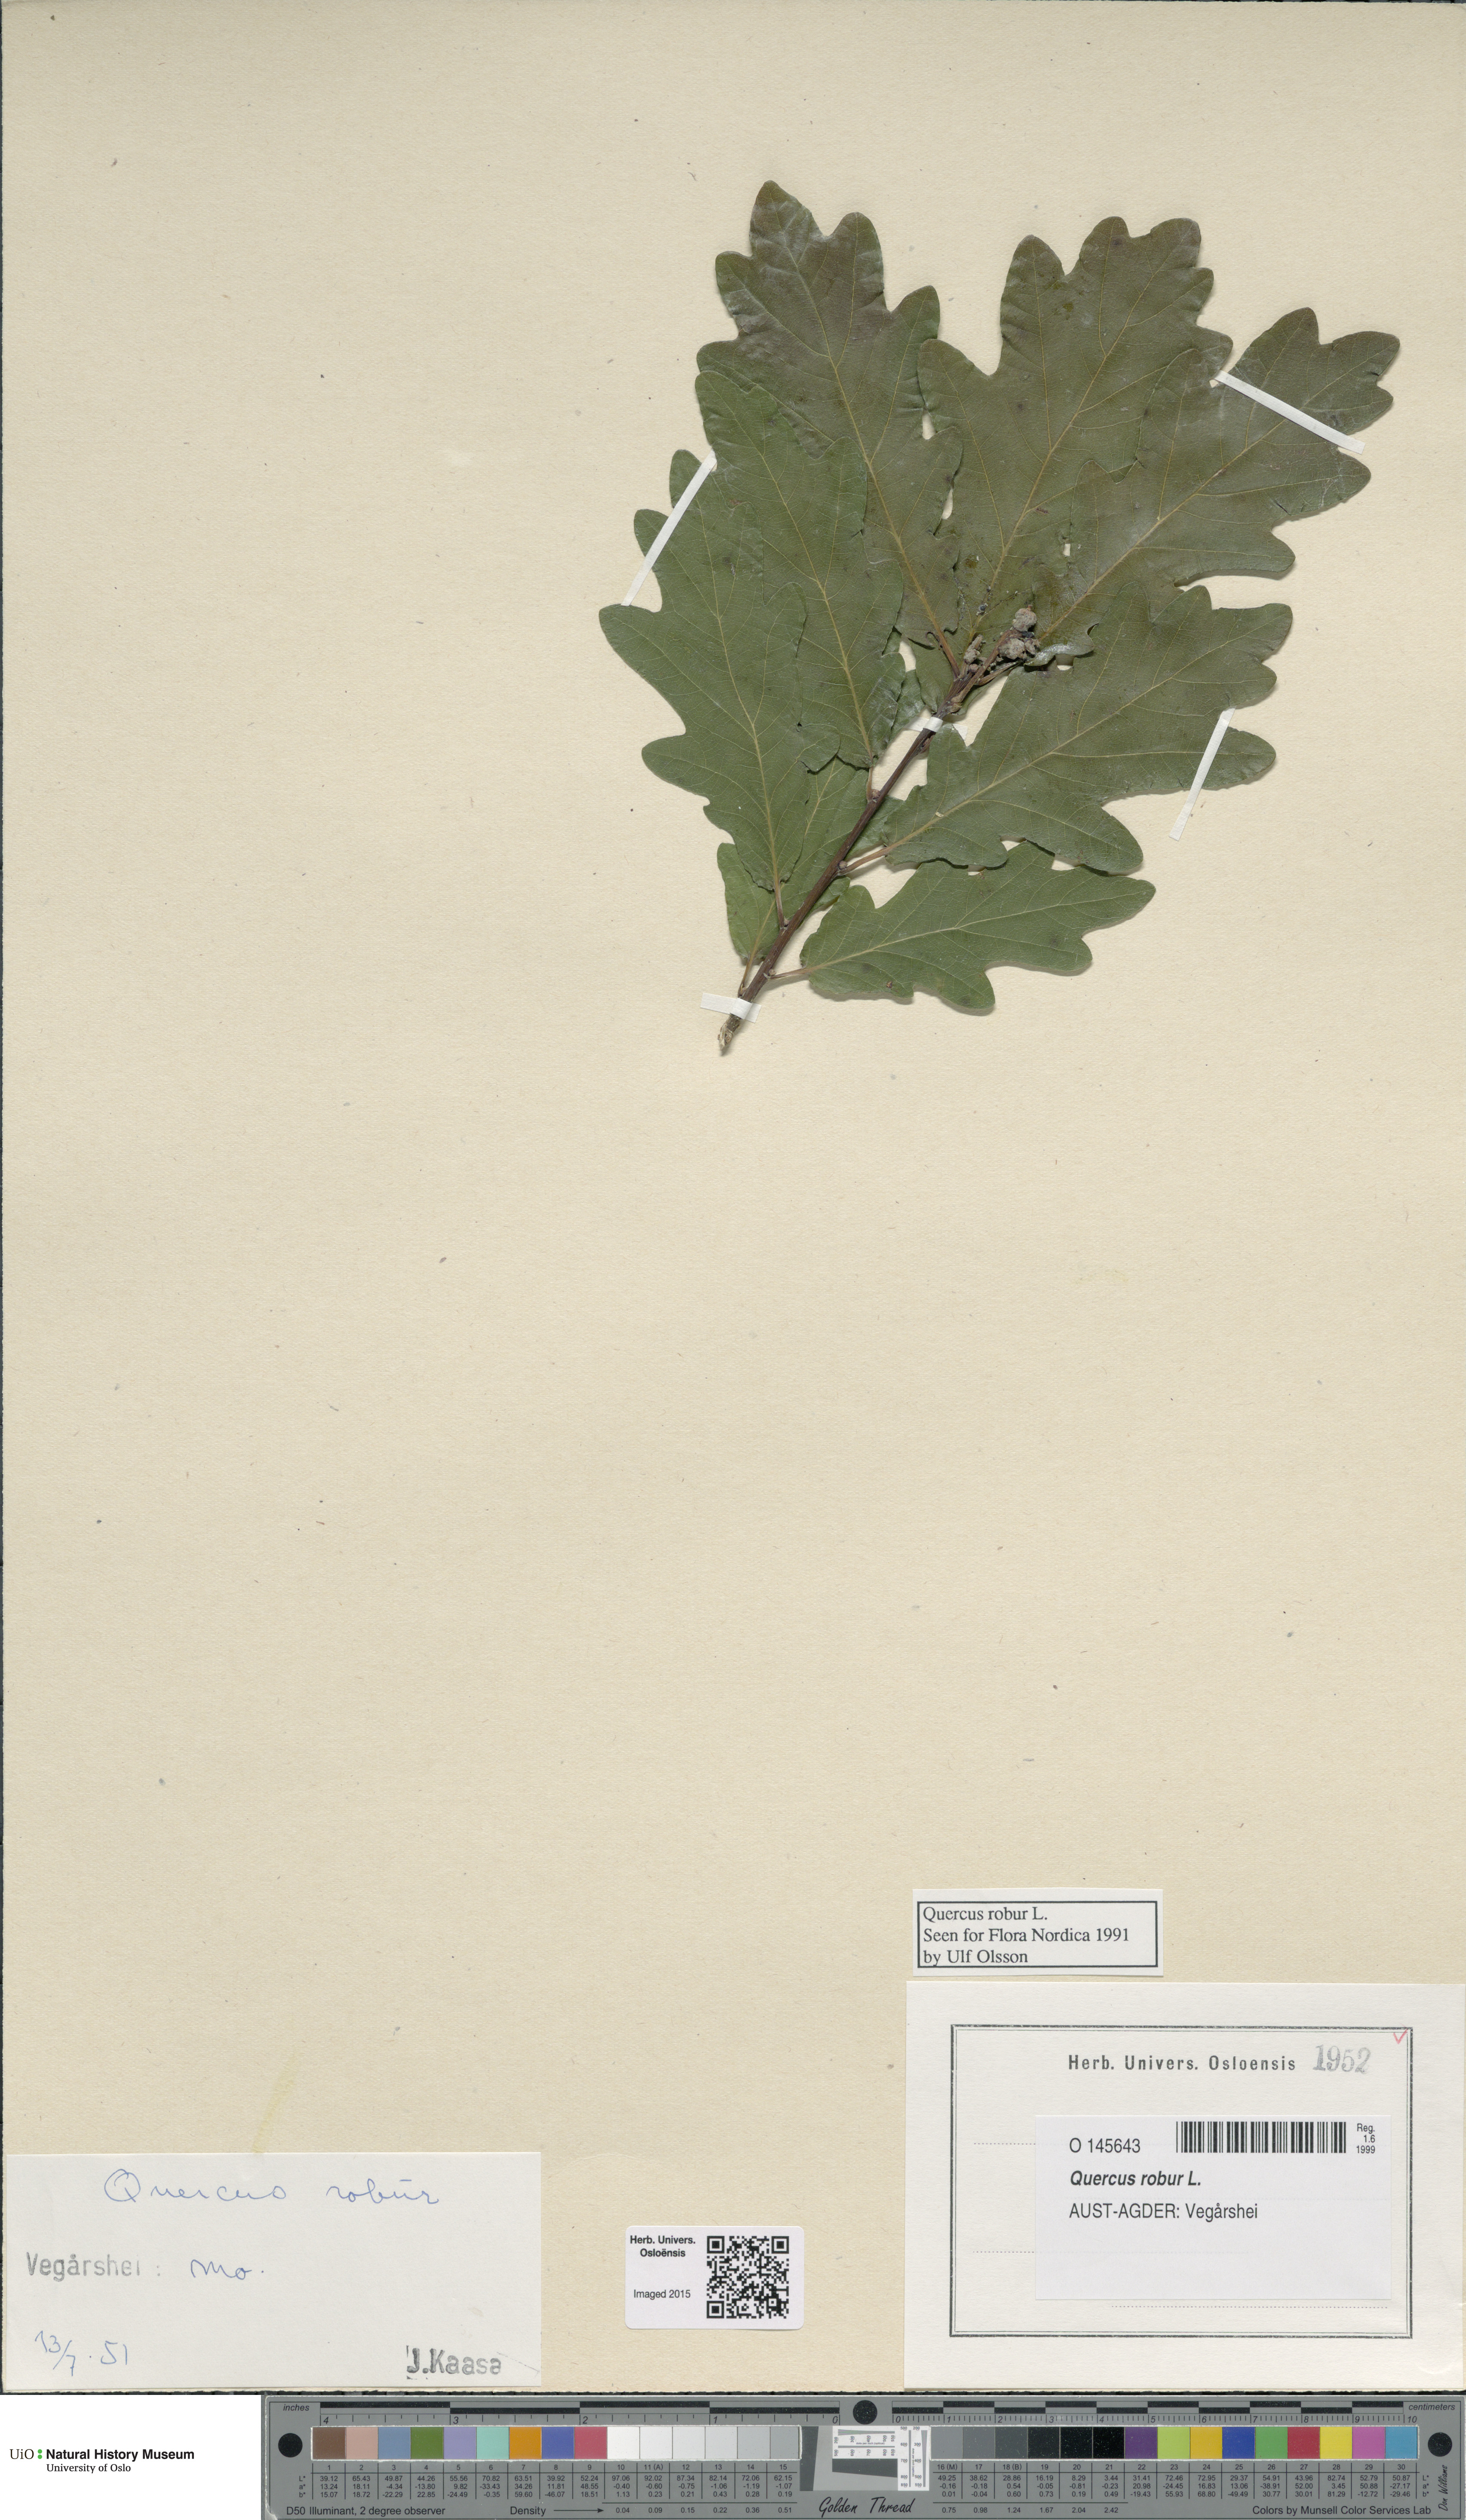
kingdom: Plantae
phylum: Tracheophyta
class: Magnoliopsida
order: Fagales
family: Fagaceae
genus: Quercus
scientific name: Quercus robur
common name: Pedunculate oak
